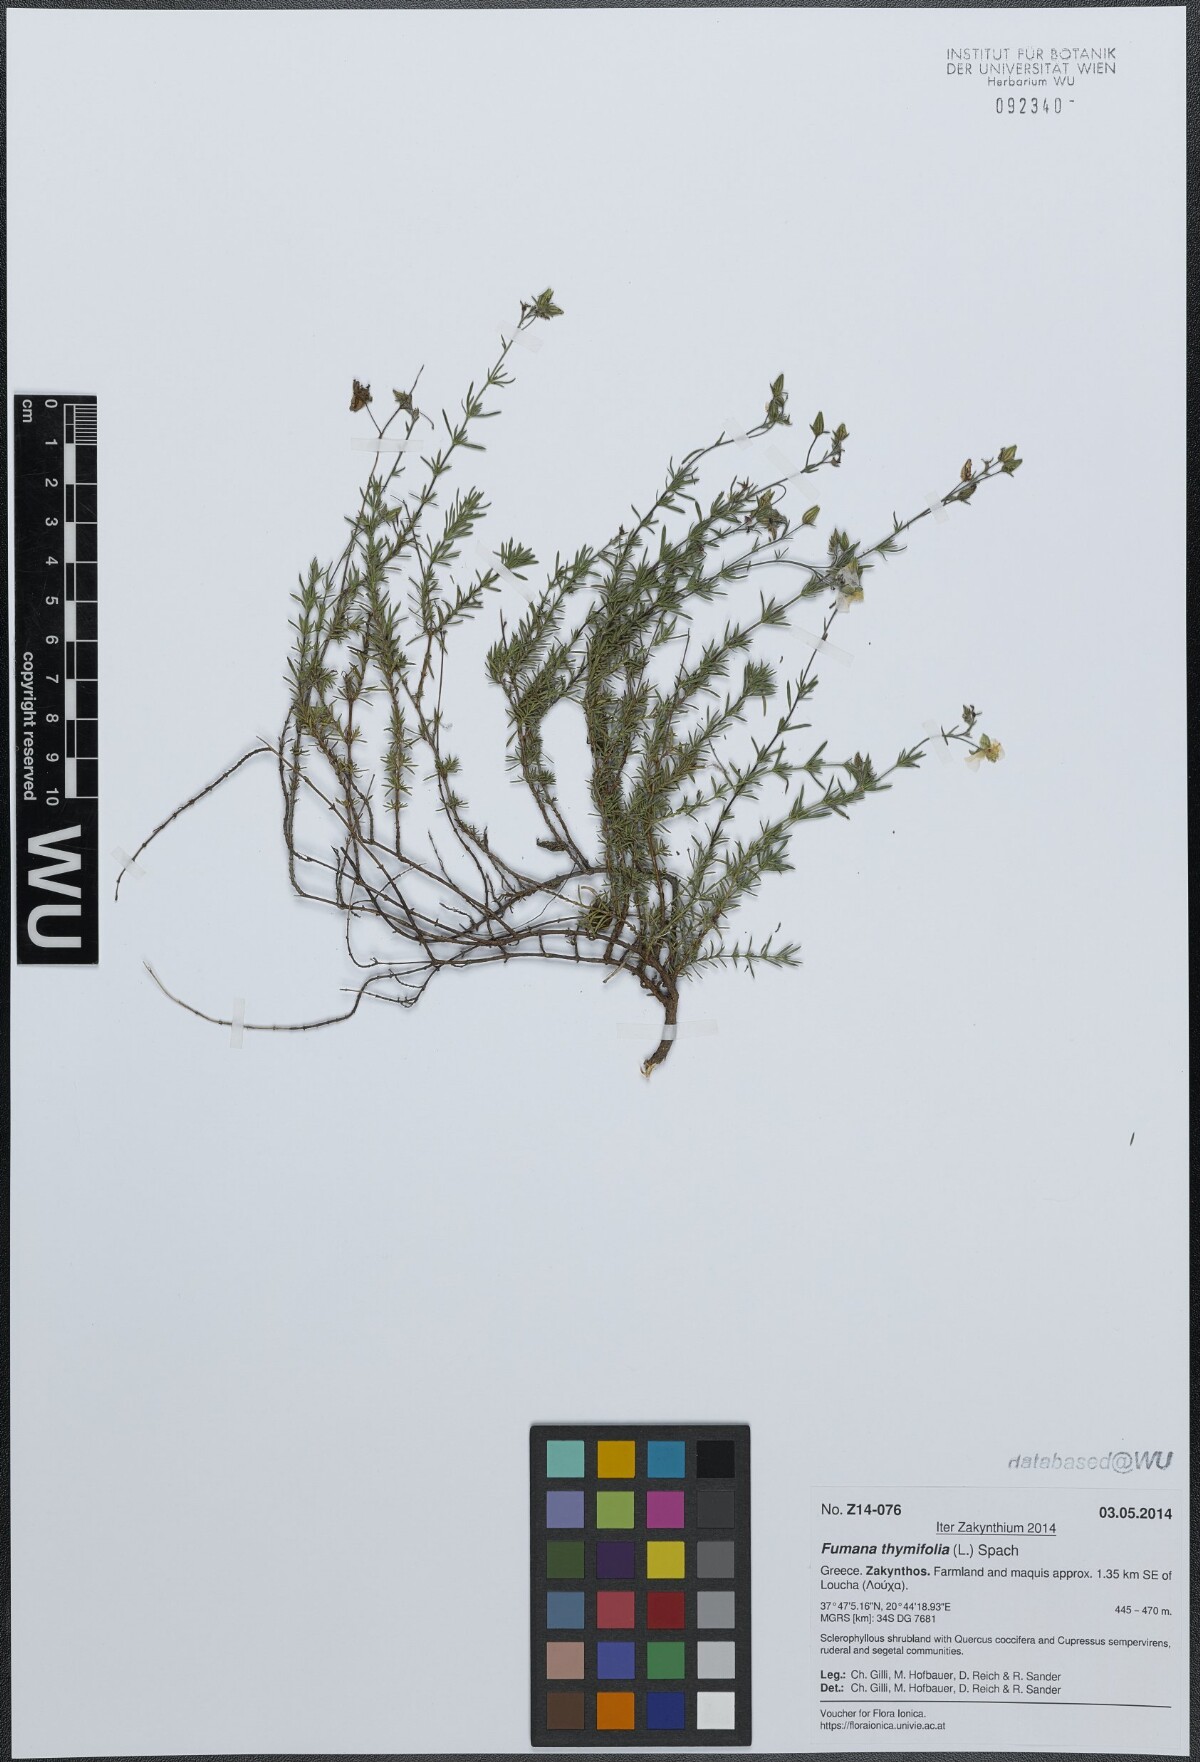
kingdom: Plantae
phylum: Tracheophyta
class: Magnoliopsida
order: Malvales
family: Cistaceae
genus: Fumana
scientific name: Fumana thymifolia
